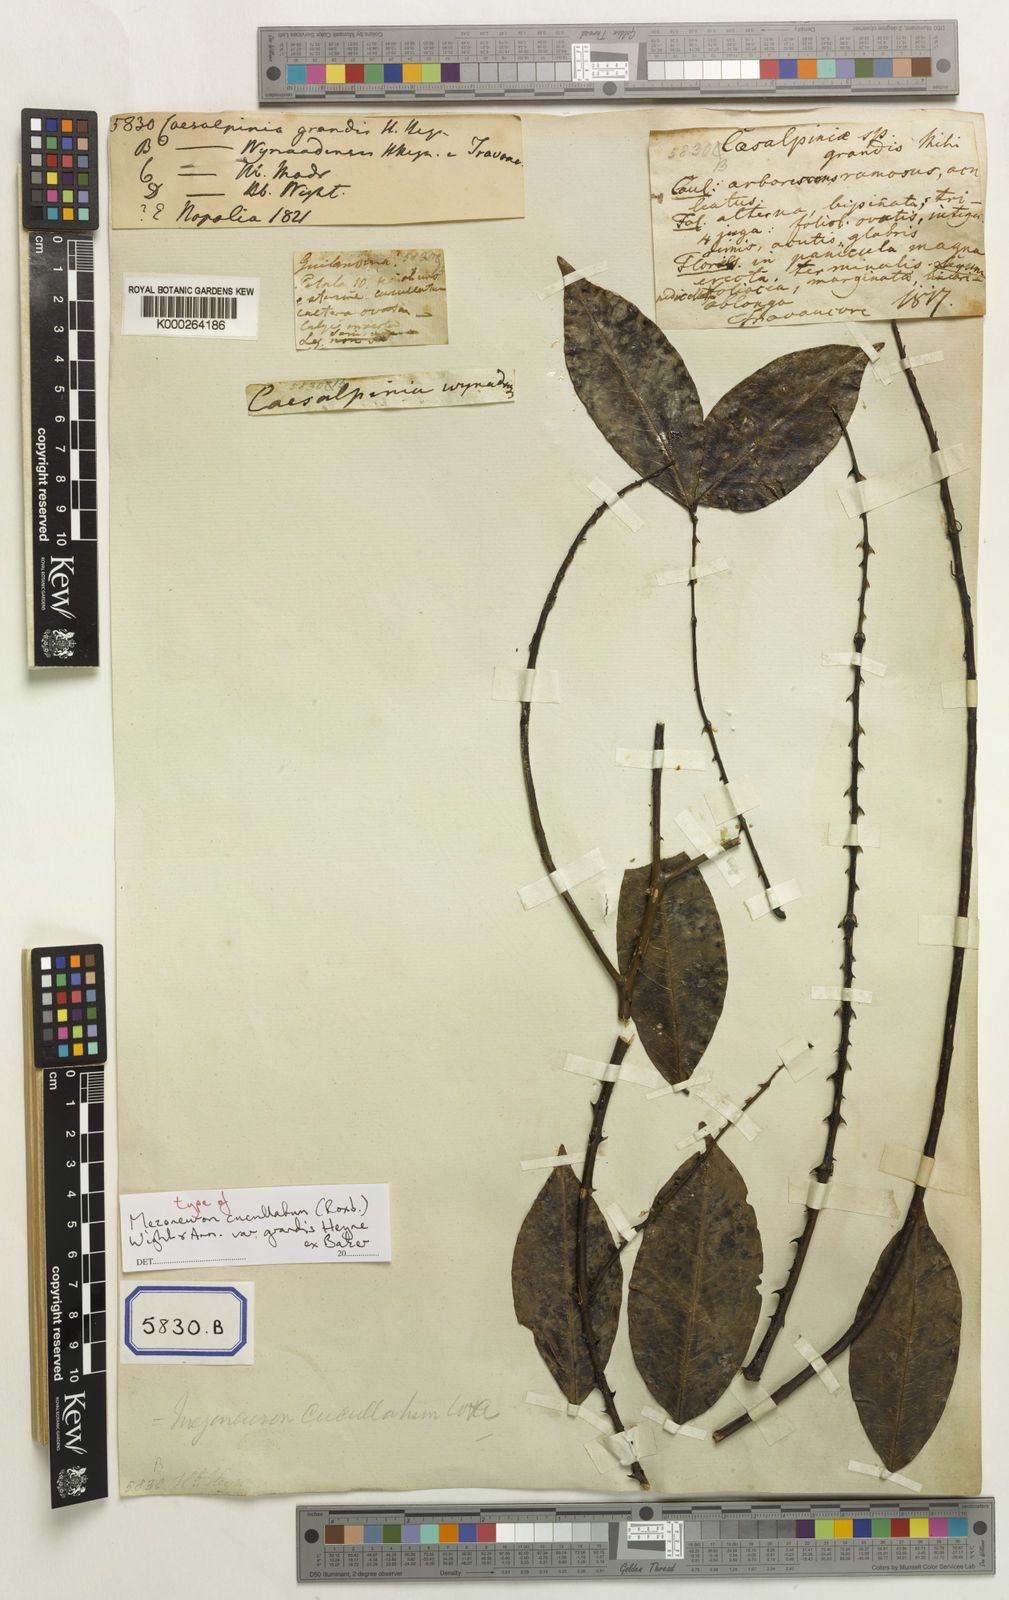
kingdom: Plantae
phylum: Tracheophyta
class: Magnoliopsida
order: Fabales
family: Fabaceae
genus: Caesalpinia
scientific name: Caesalpinia
